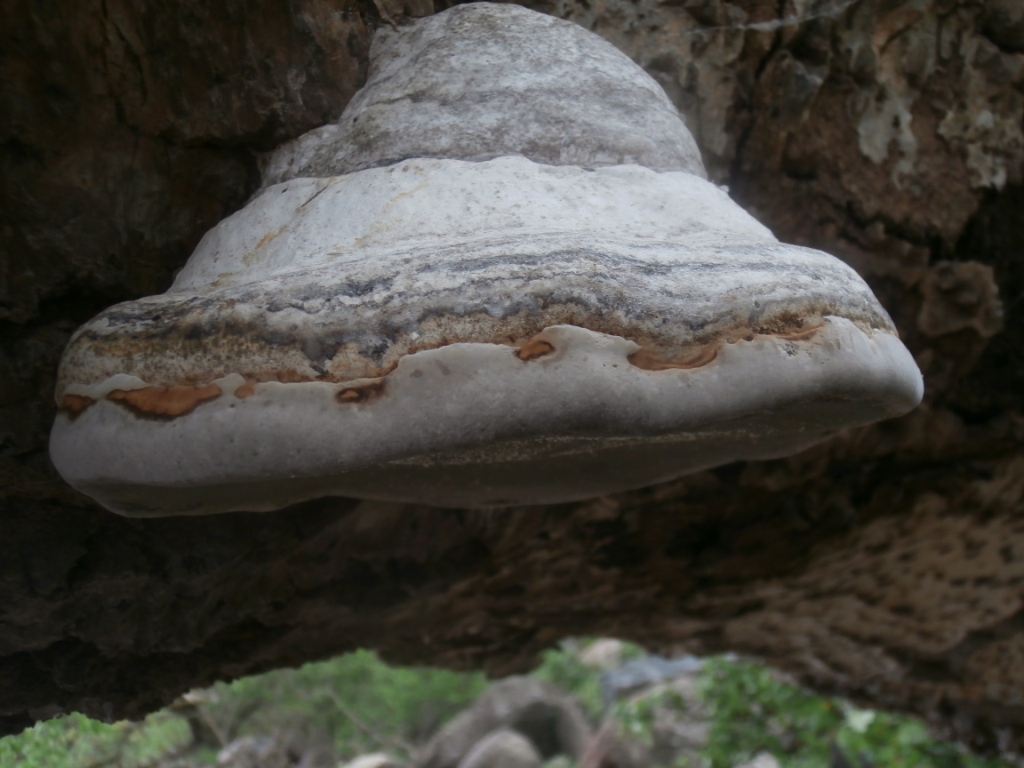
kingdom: Fungi
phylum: Basidiomycota
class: Agaricomycetes
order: Polyporales
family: Polyporaceae
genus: Fomes
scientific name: Fomes fomentarius
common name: tøndersvamp
